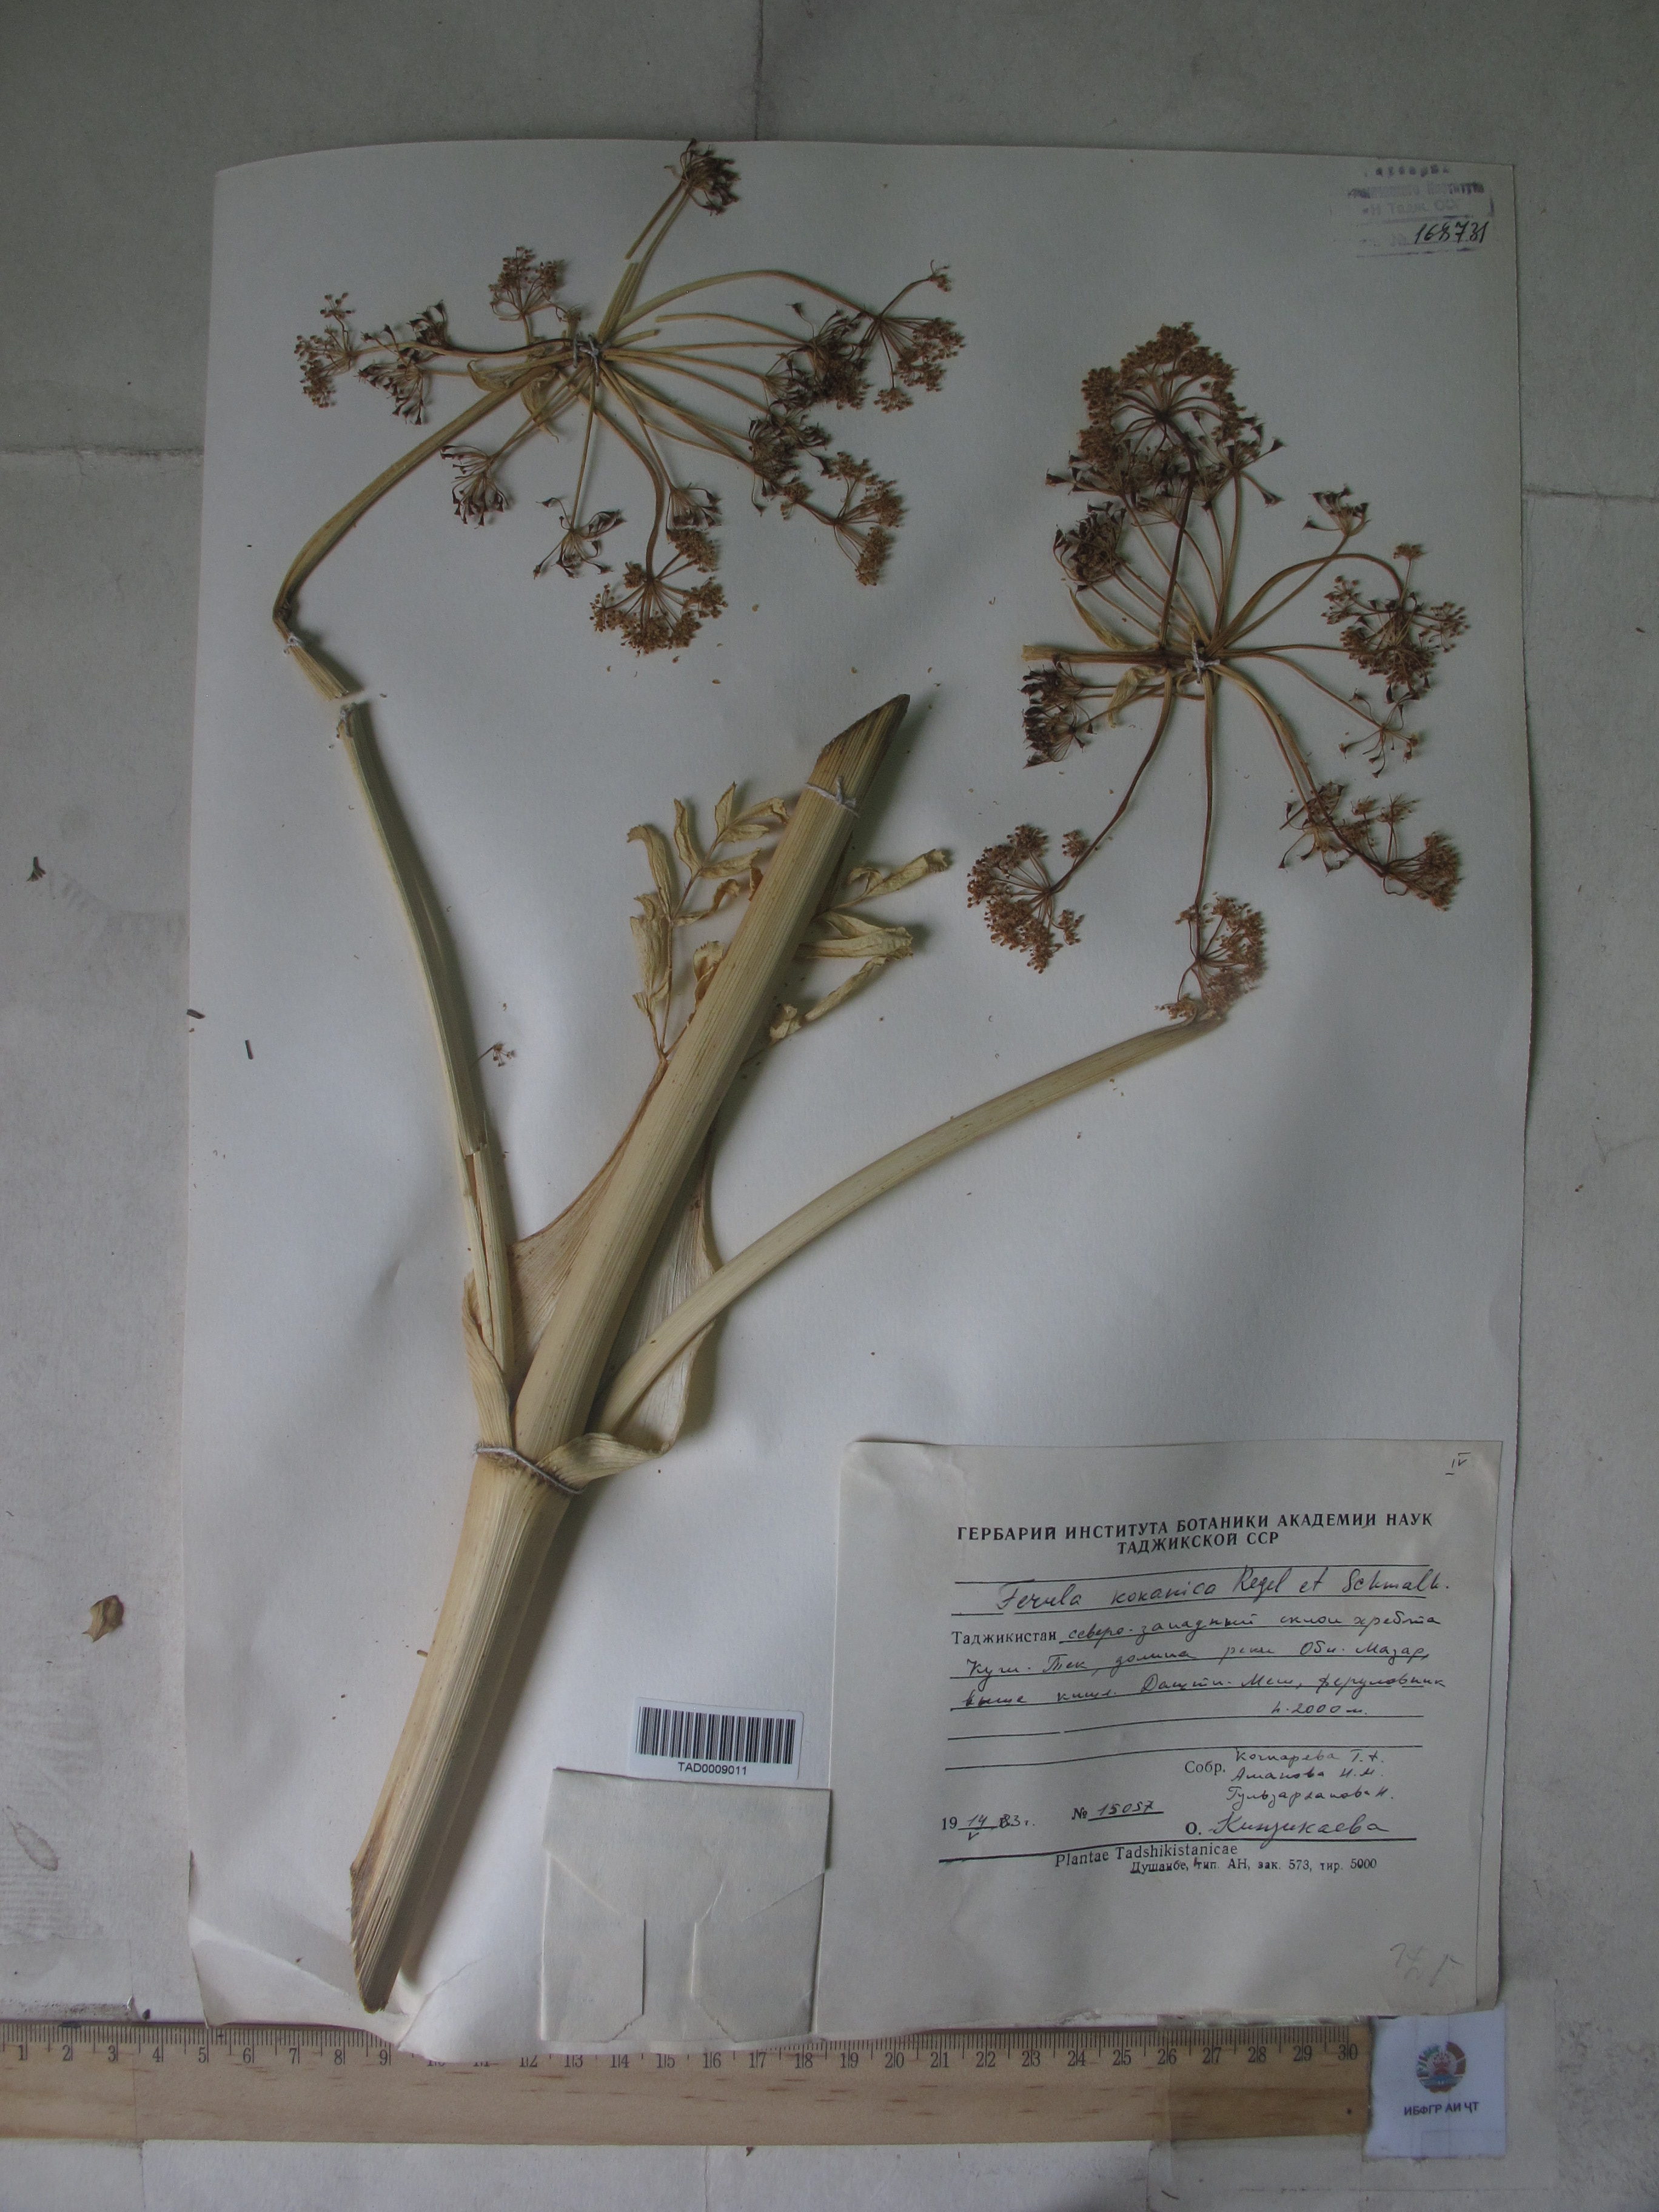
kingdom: Plantae
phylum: Tracheophyta
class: Magnoliopsida
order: Apiales
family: Apiaceae
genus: Ferula
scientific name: Ferula kokanica
